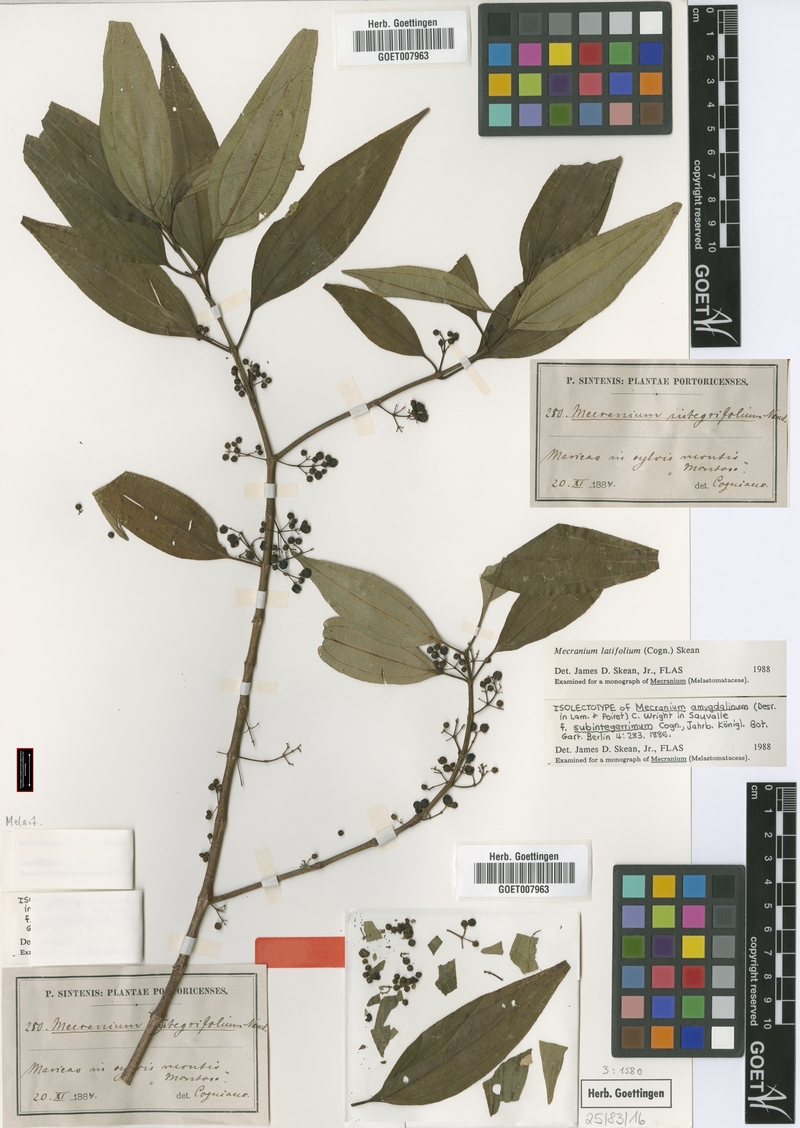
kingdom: Plantae
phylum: Tracheophyta
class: Magnoliopsida
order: Myrtales
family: Melastomataceae
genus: Miconia
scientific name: Miconia borinquensis
